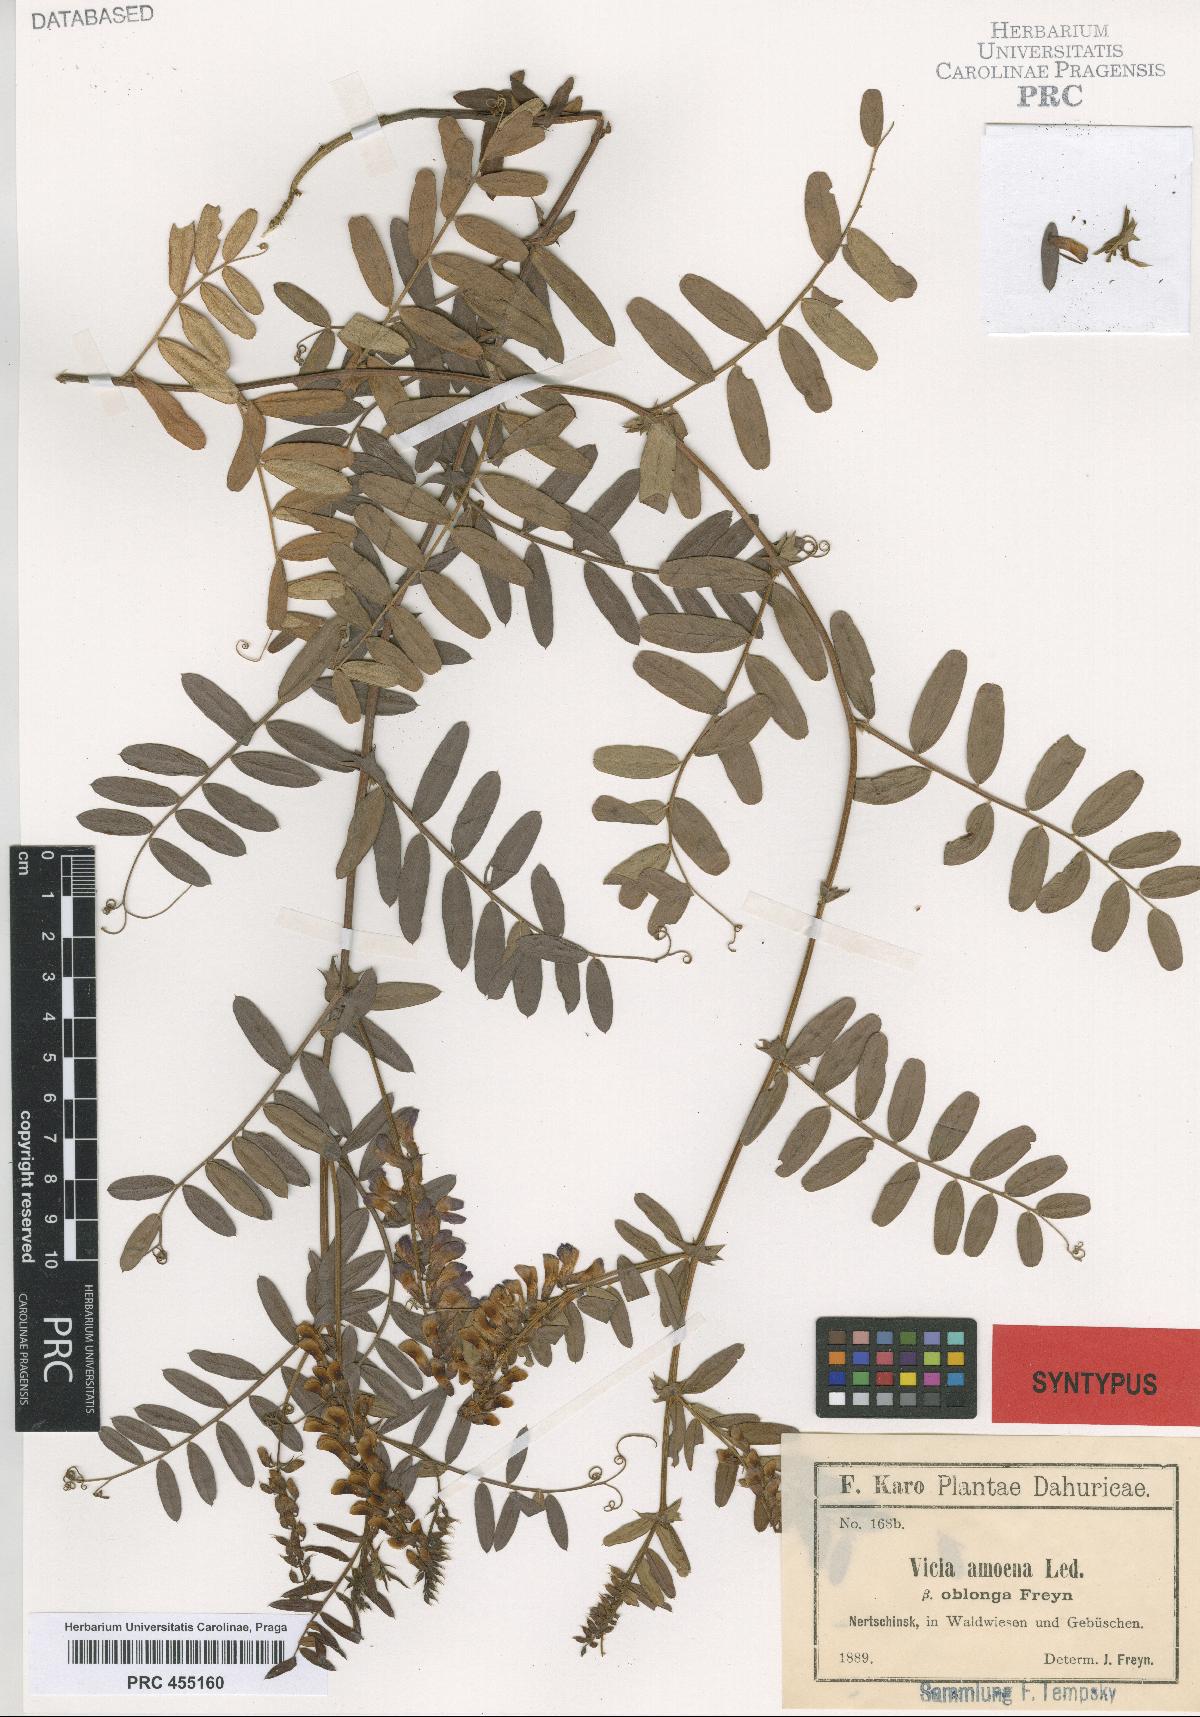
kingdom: Plantae
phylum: Tracheophyta
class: Magnoliopsida
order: Fabales
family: Fabaceae
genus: Vicia
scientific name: Vicia amoena
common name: Cheder ebs
